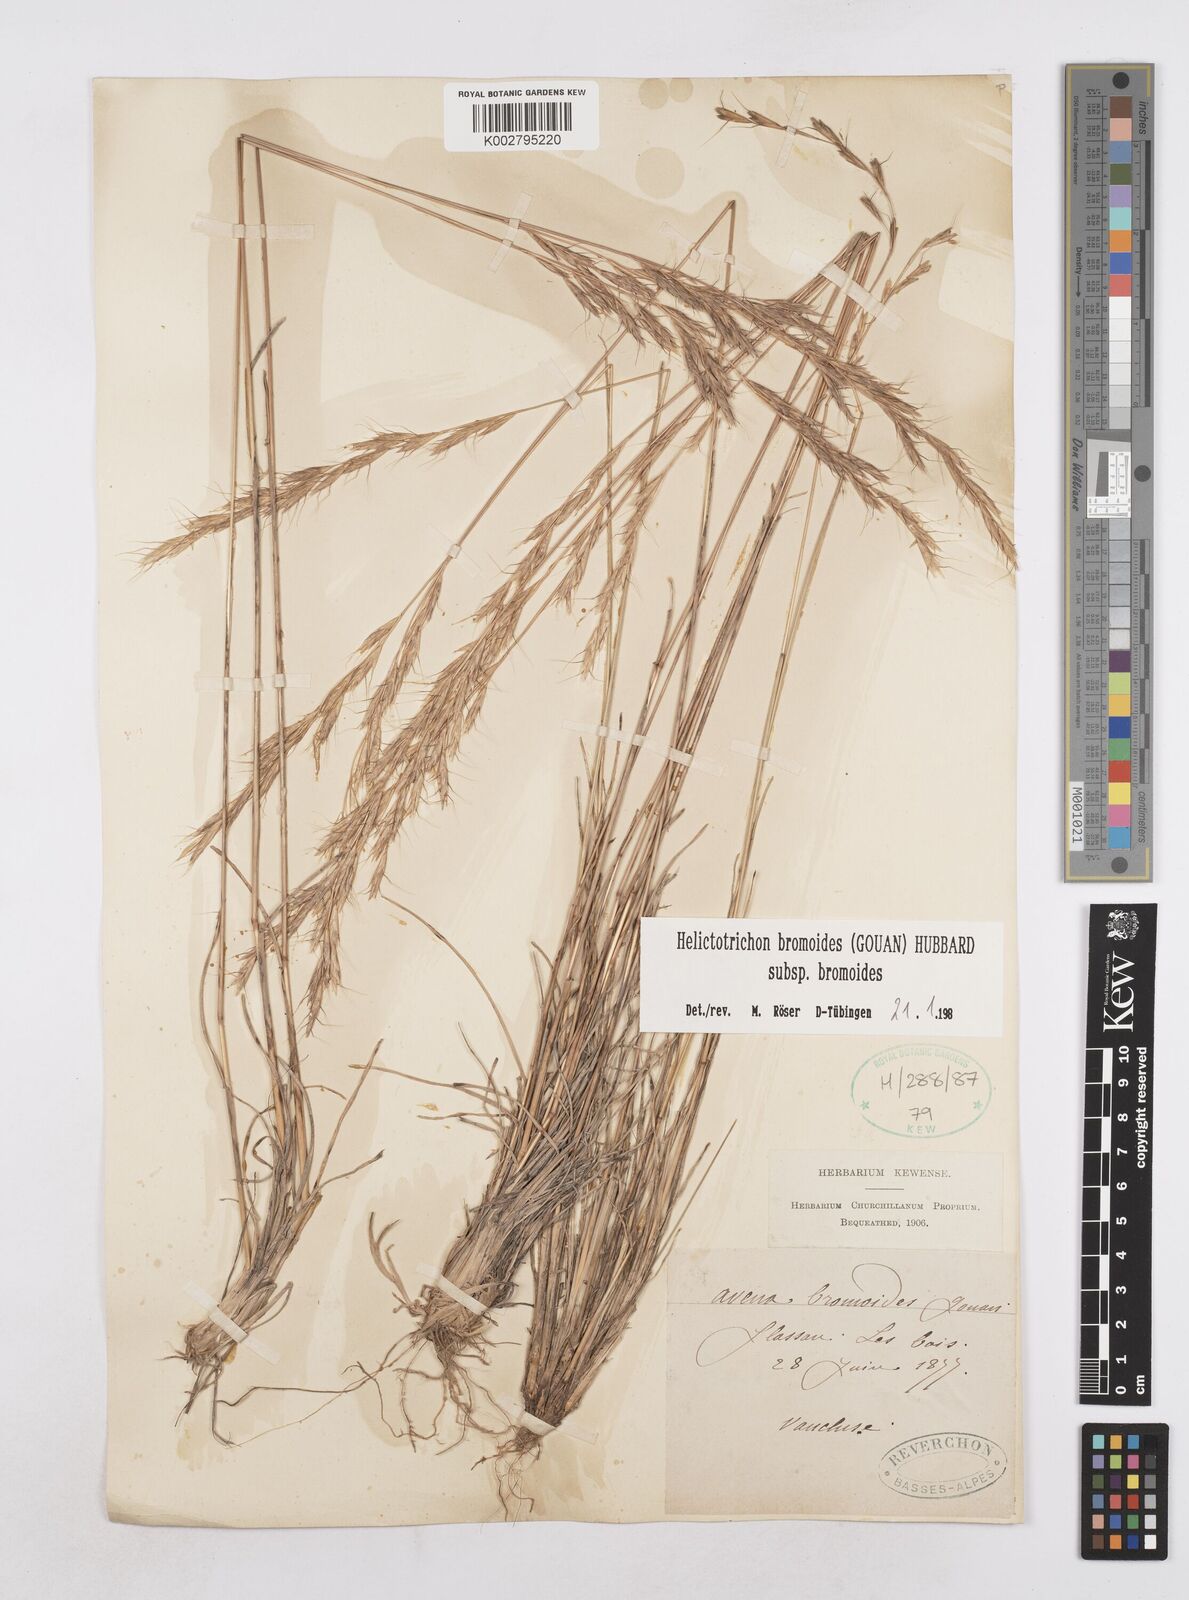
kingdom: Plantae
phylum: Tracheophyta
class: Liliopsida
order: Poales
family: Poaceae
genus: Helictochloa
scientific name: Helictochloa bromoides
